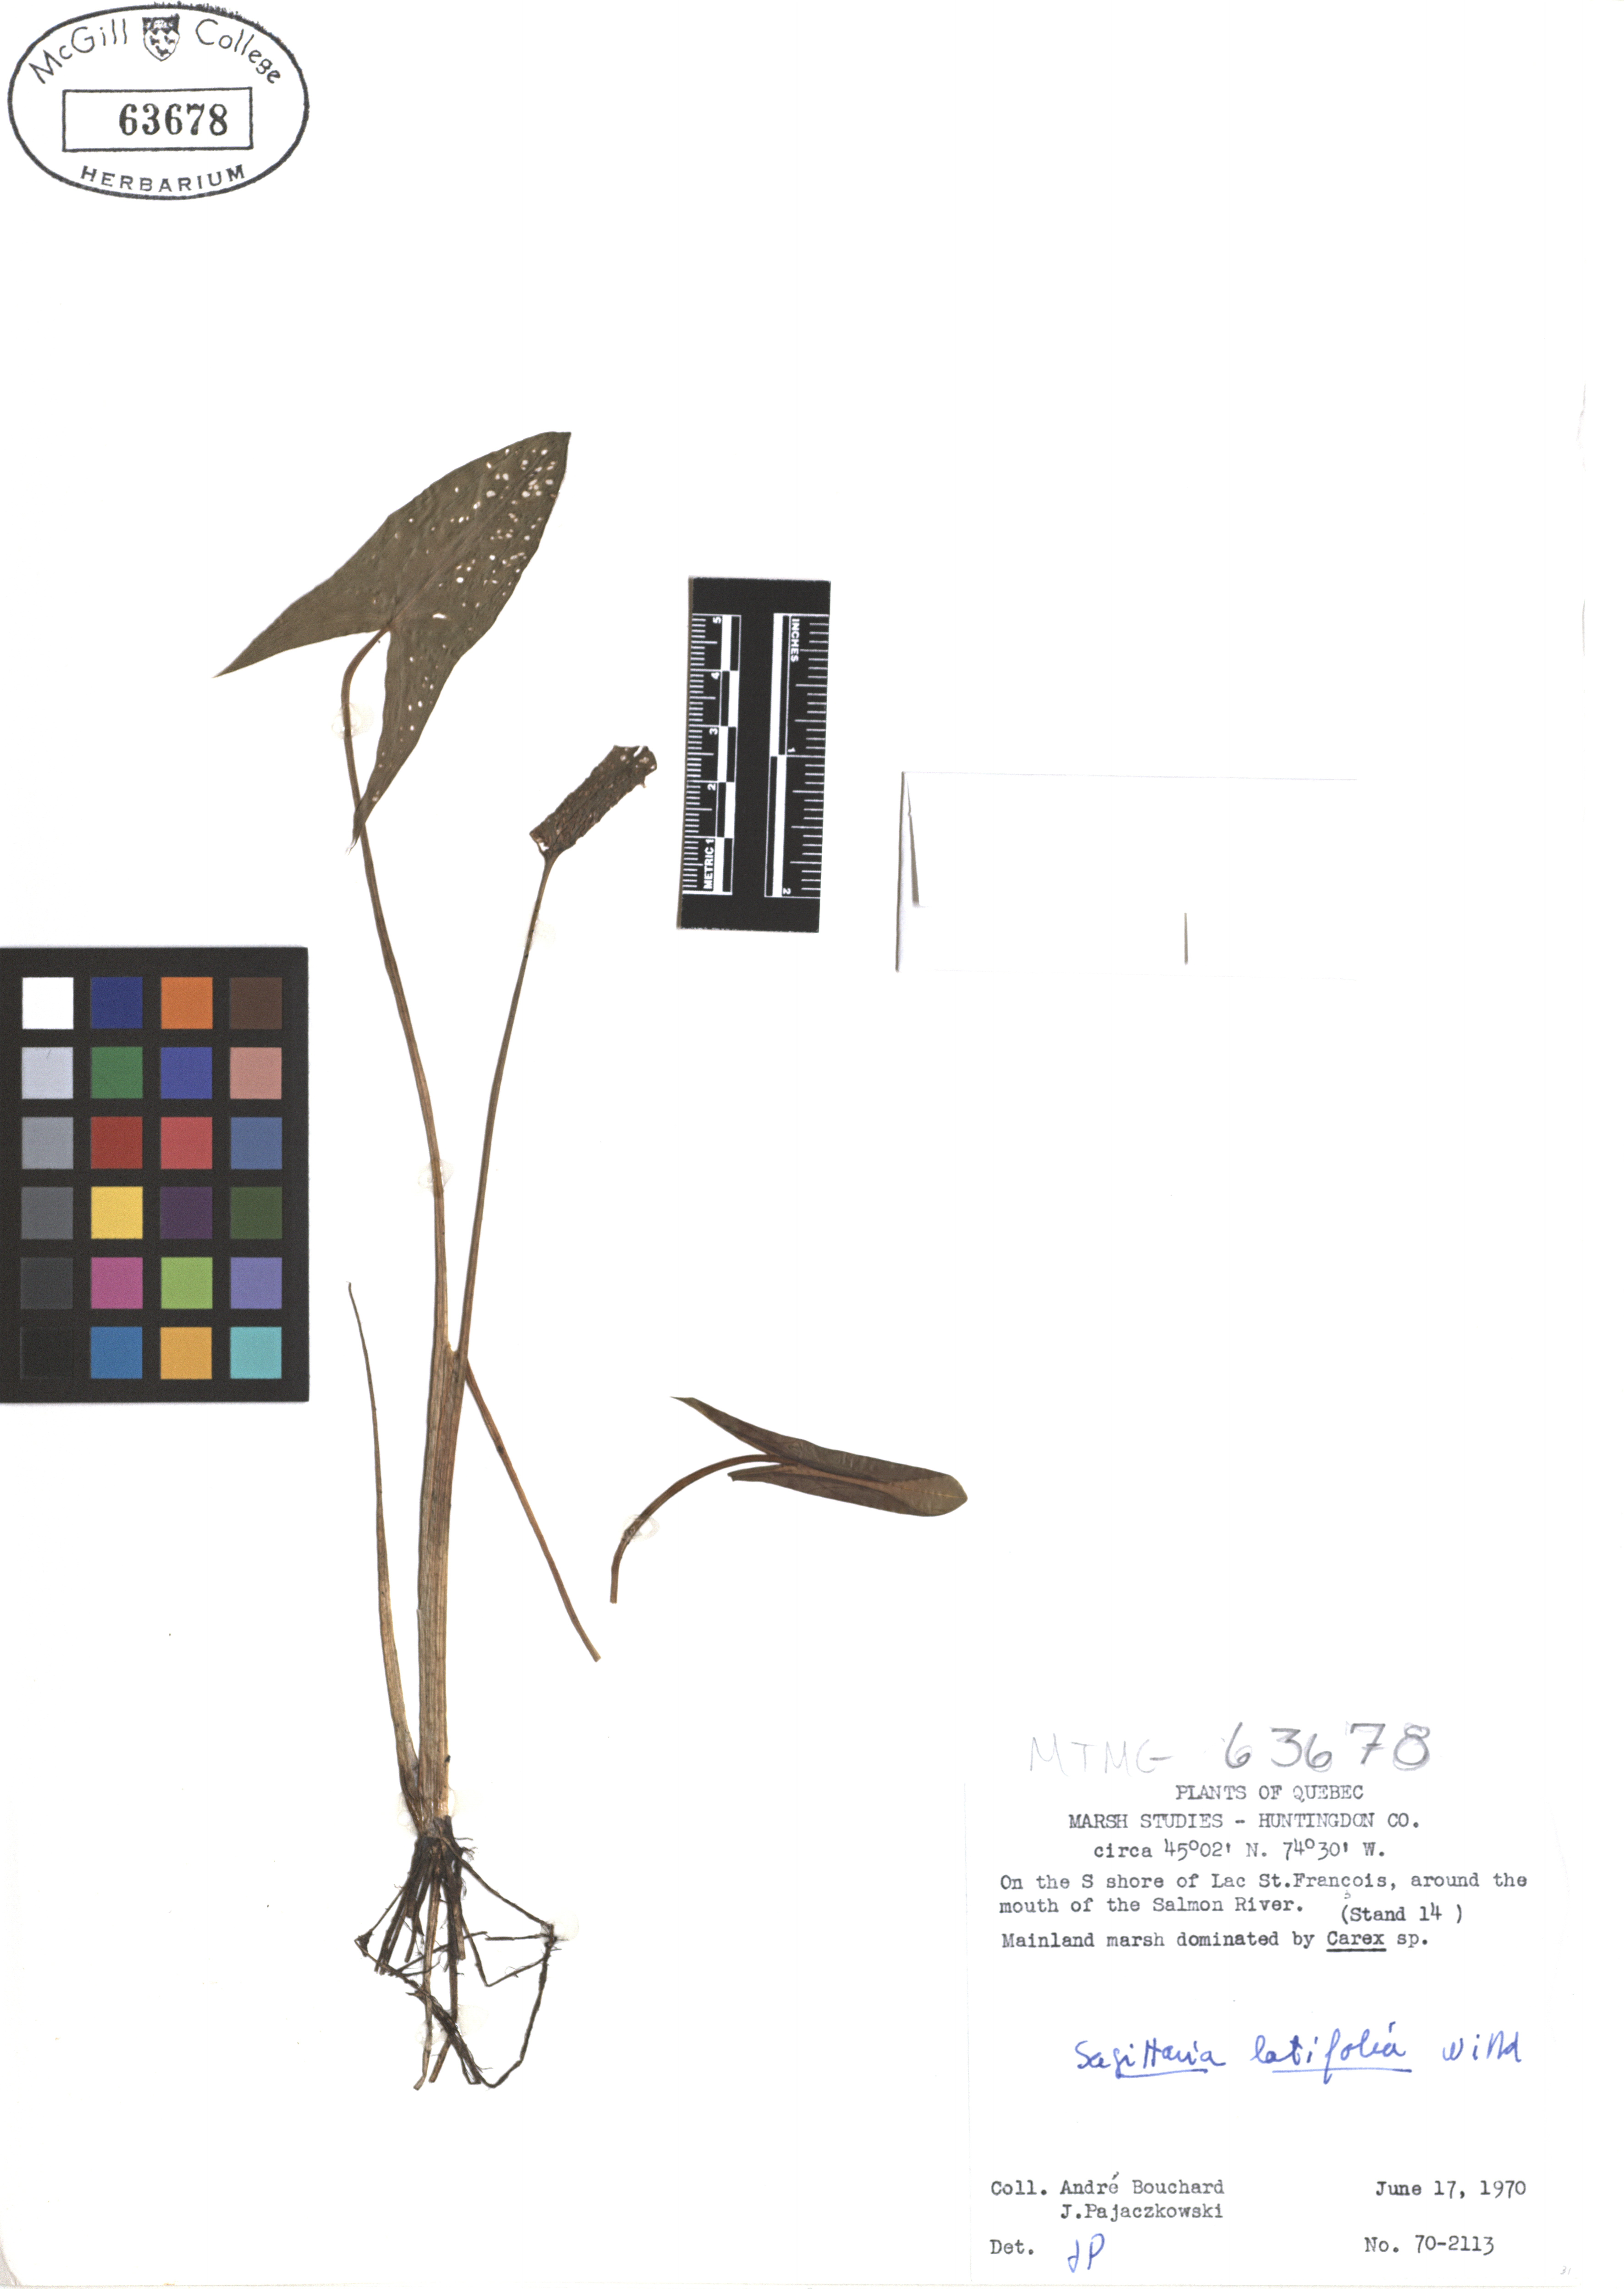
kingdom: Plantae
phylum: Tracheophyta
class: Liliopsida
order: Alismatales
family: Alismataceae
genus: Sagittaria
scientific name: Sagittaria latifolia
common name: Duck-potato
